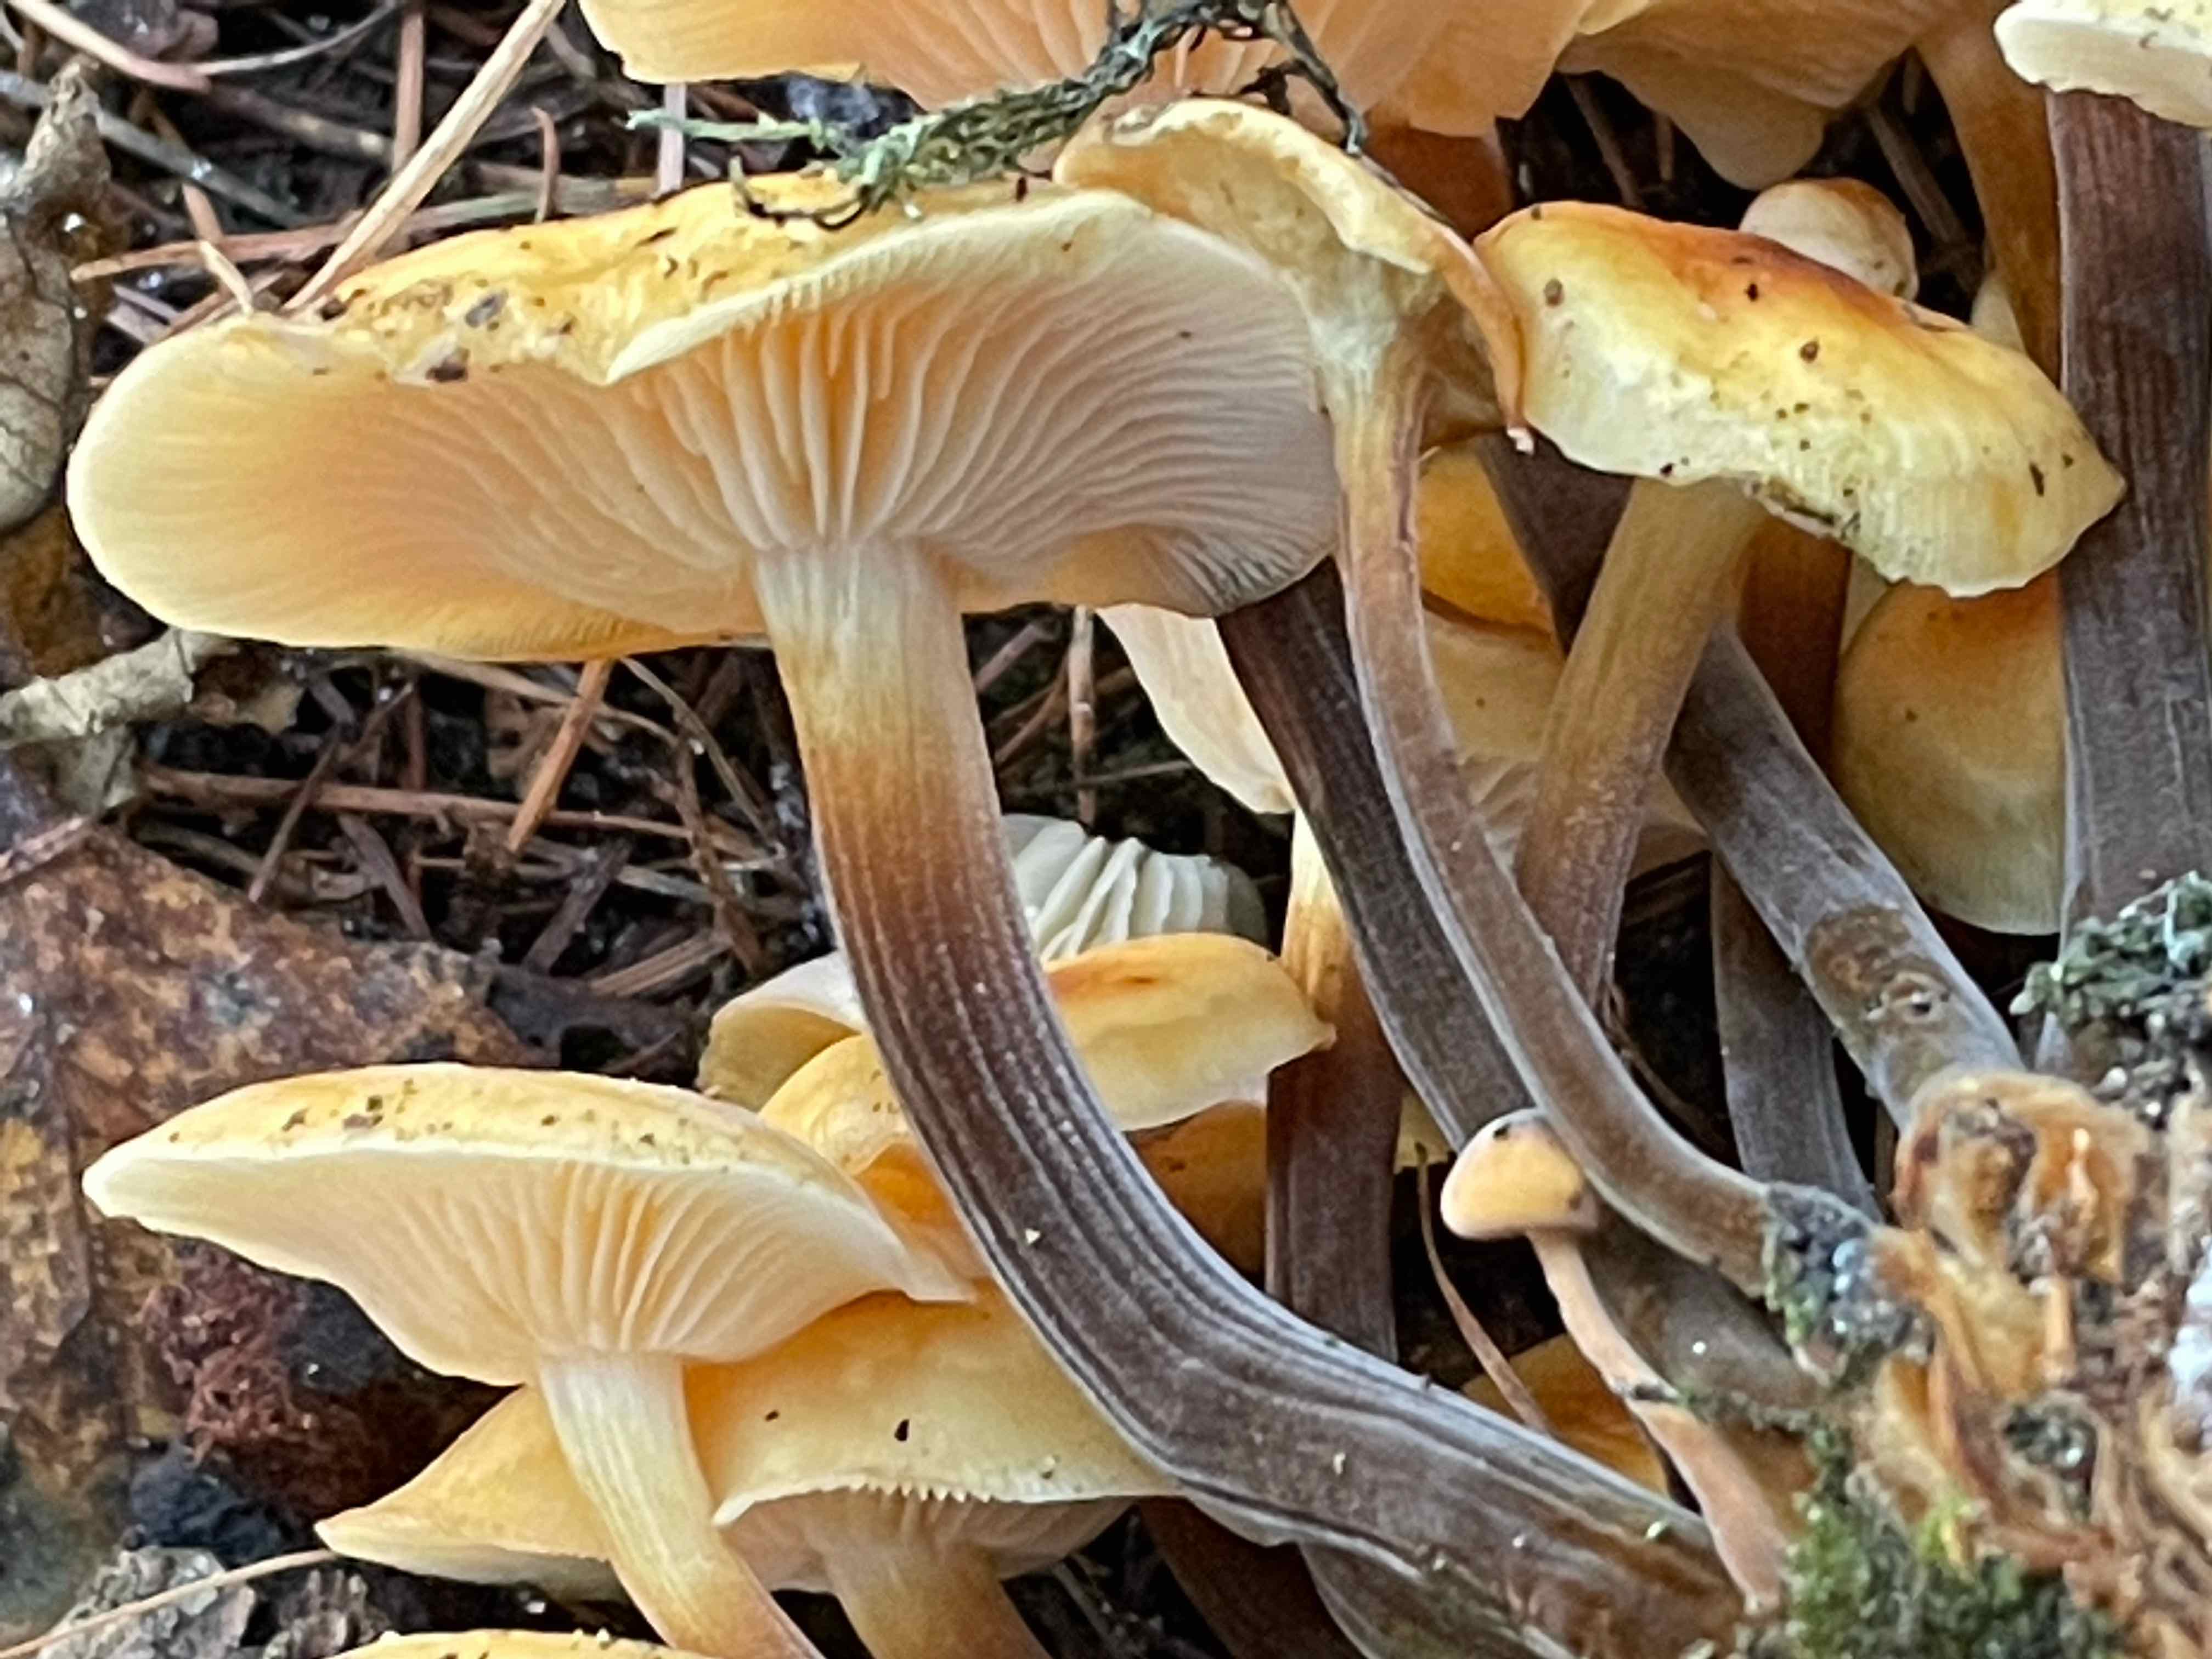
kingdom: Fungi
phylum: Basidiomycota
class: Agaricomycetes
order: Agaricales
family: Physalacriaceae
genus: Flammulina
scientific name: Flammulina velutipes
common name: gul fløjlsfod
